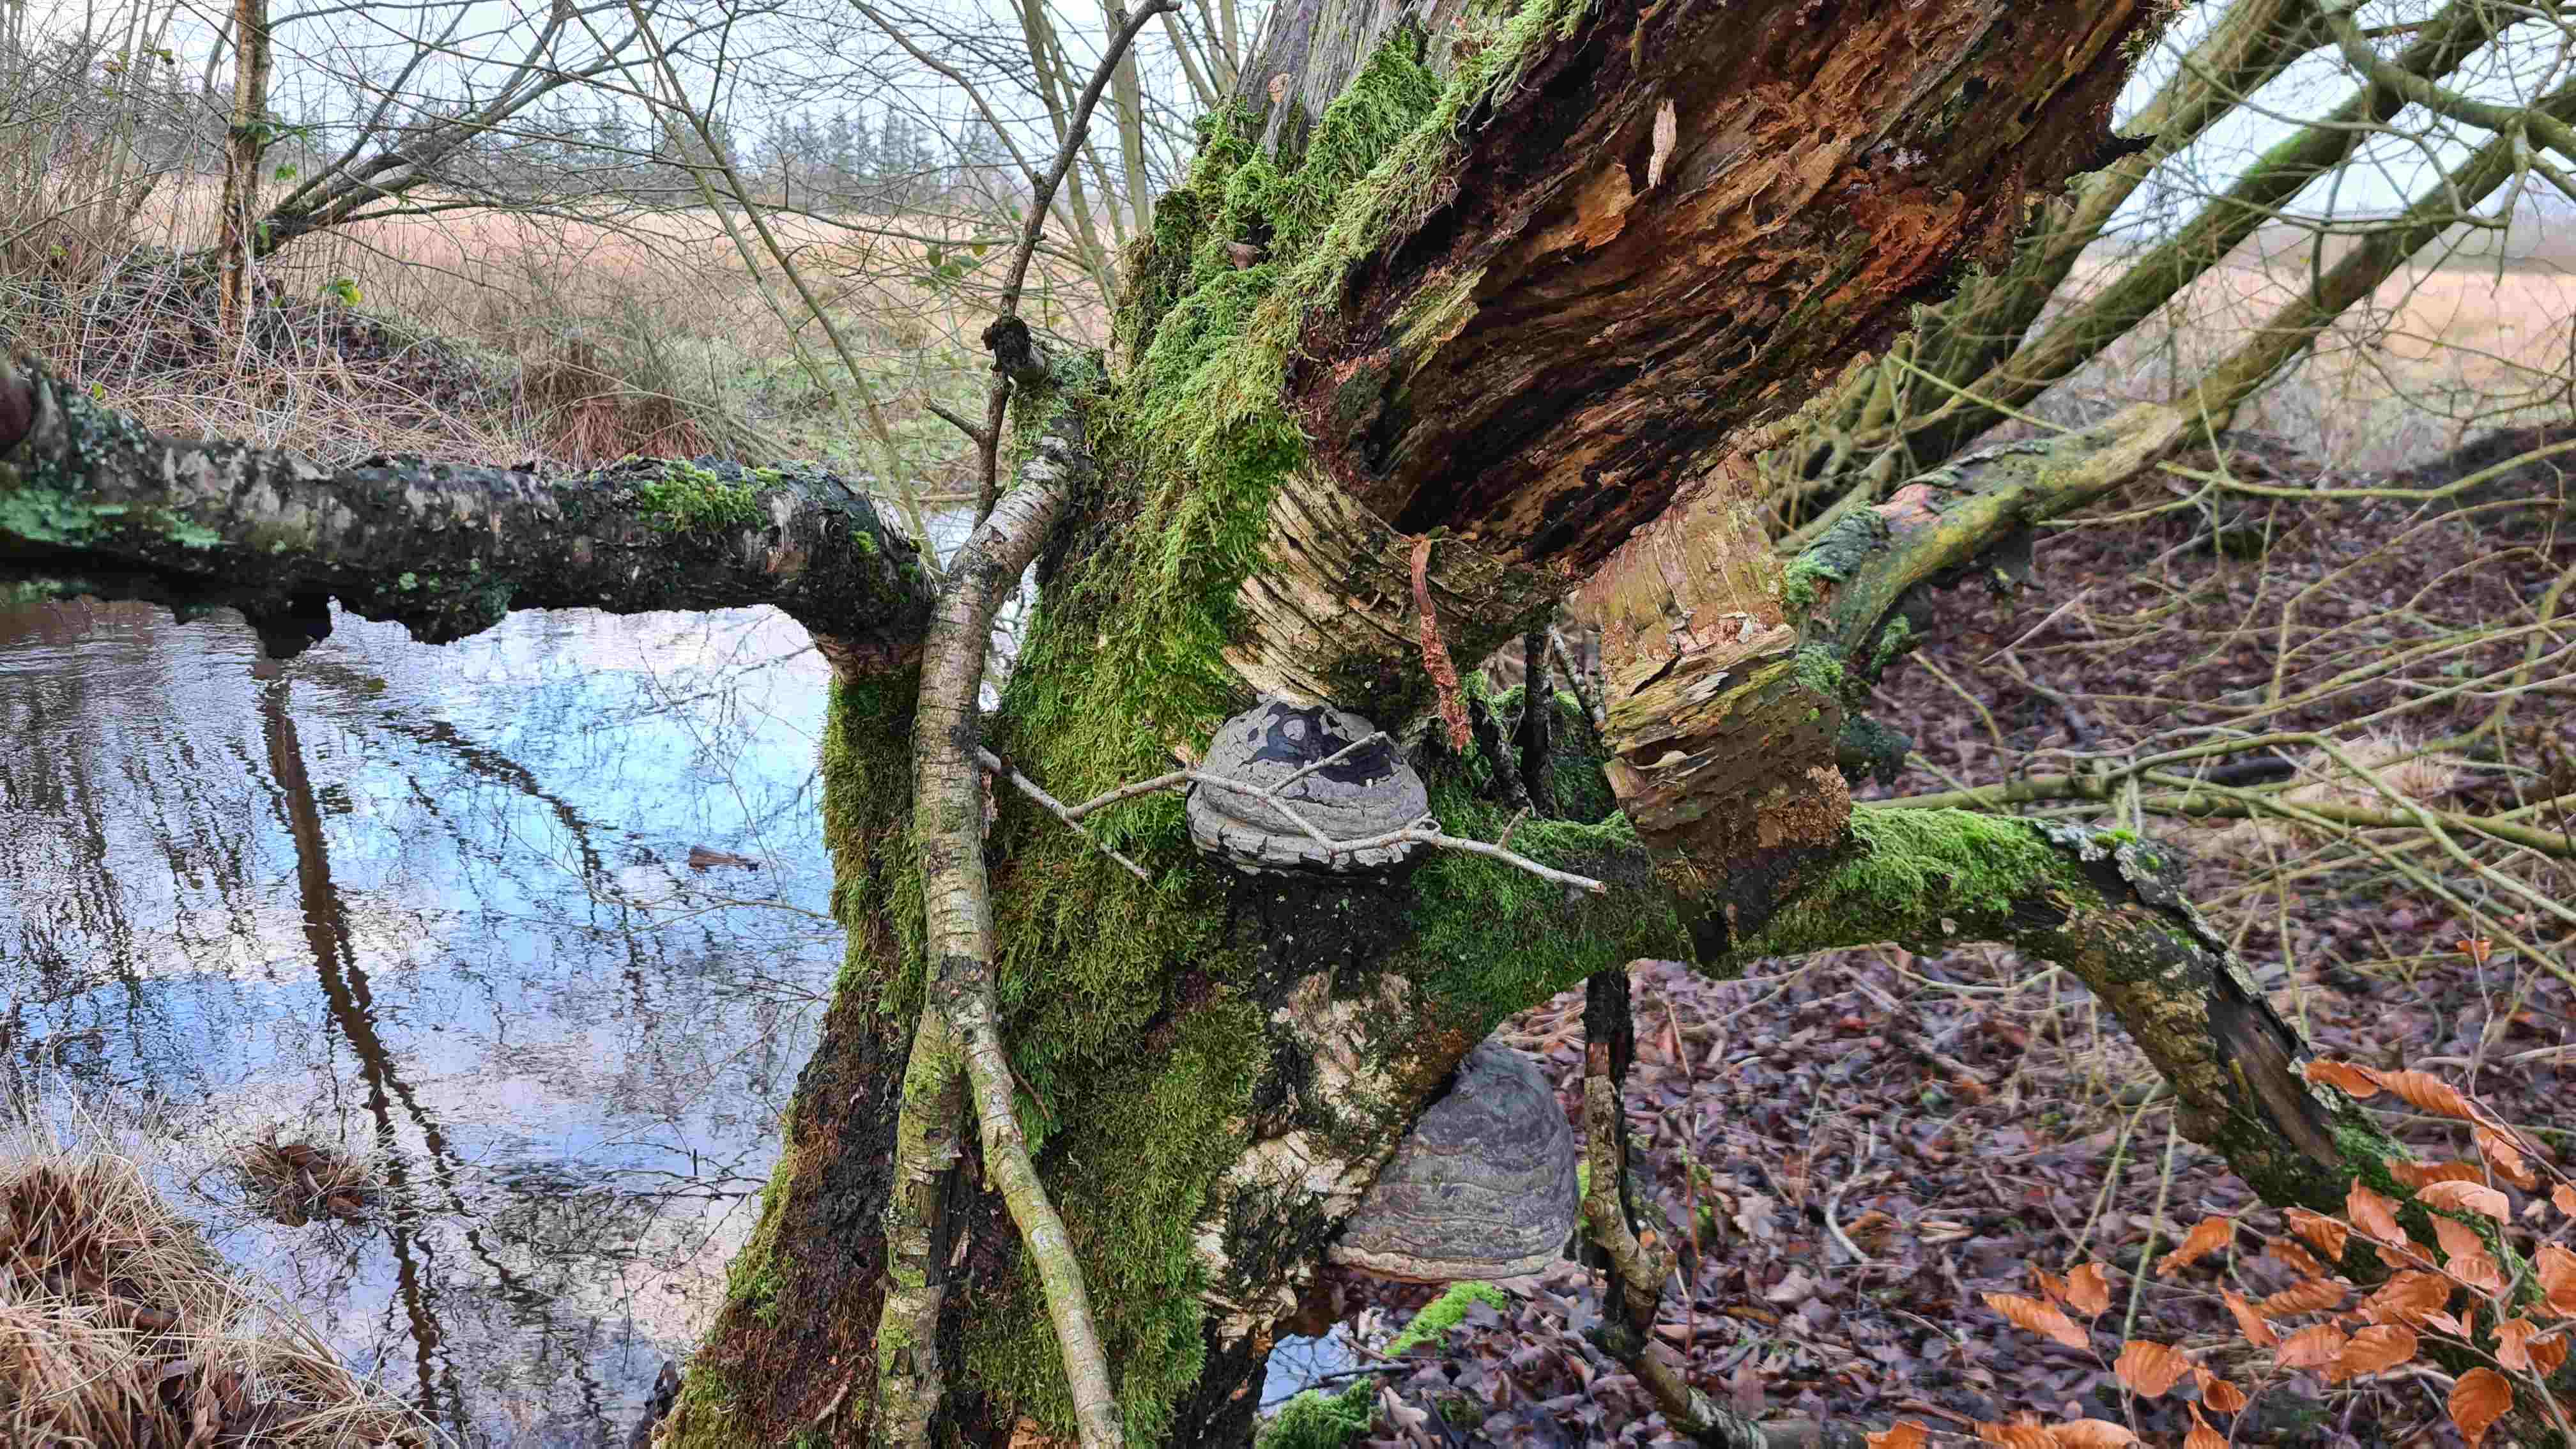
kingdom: Fungi
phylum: Basidiomycota
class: Agaricomycetes
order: Polyporales
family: Polyporaceae
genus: Fomes
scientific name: Fomes fomentarius
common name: tøndersvamp
